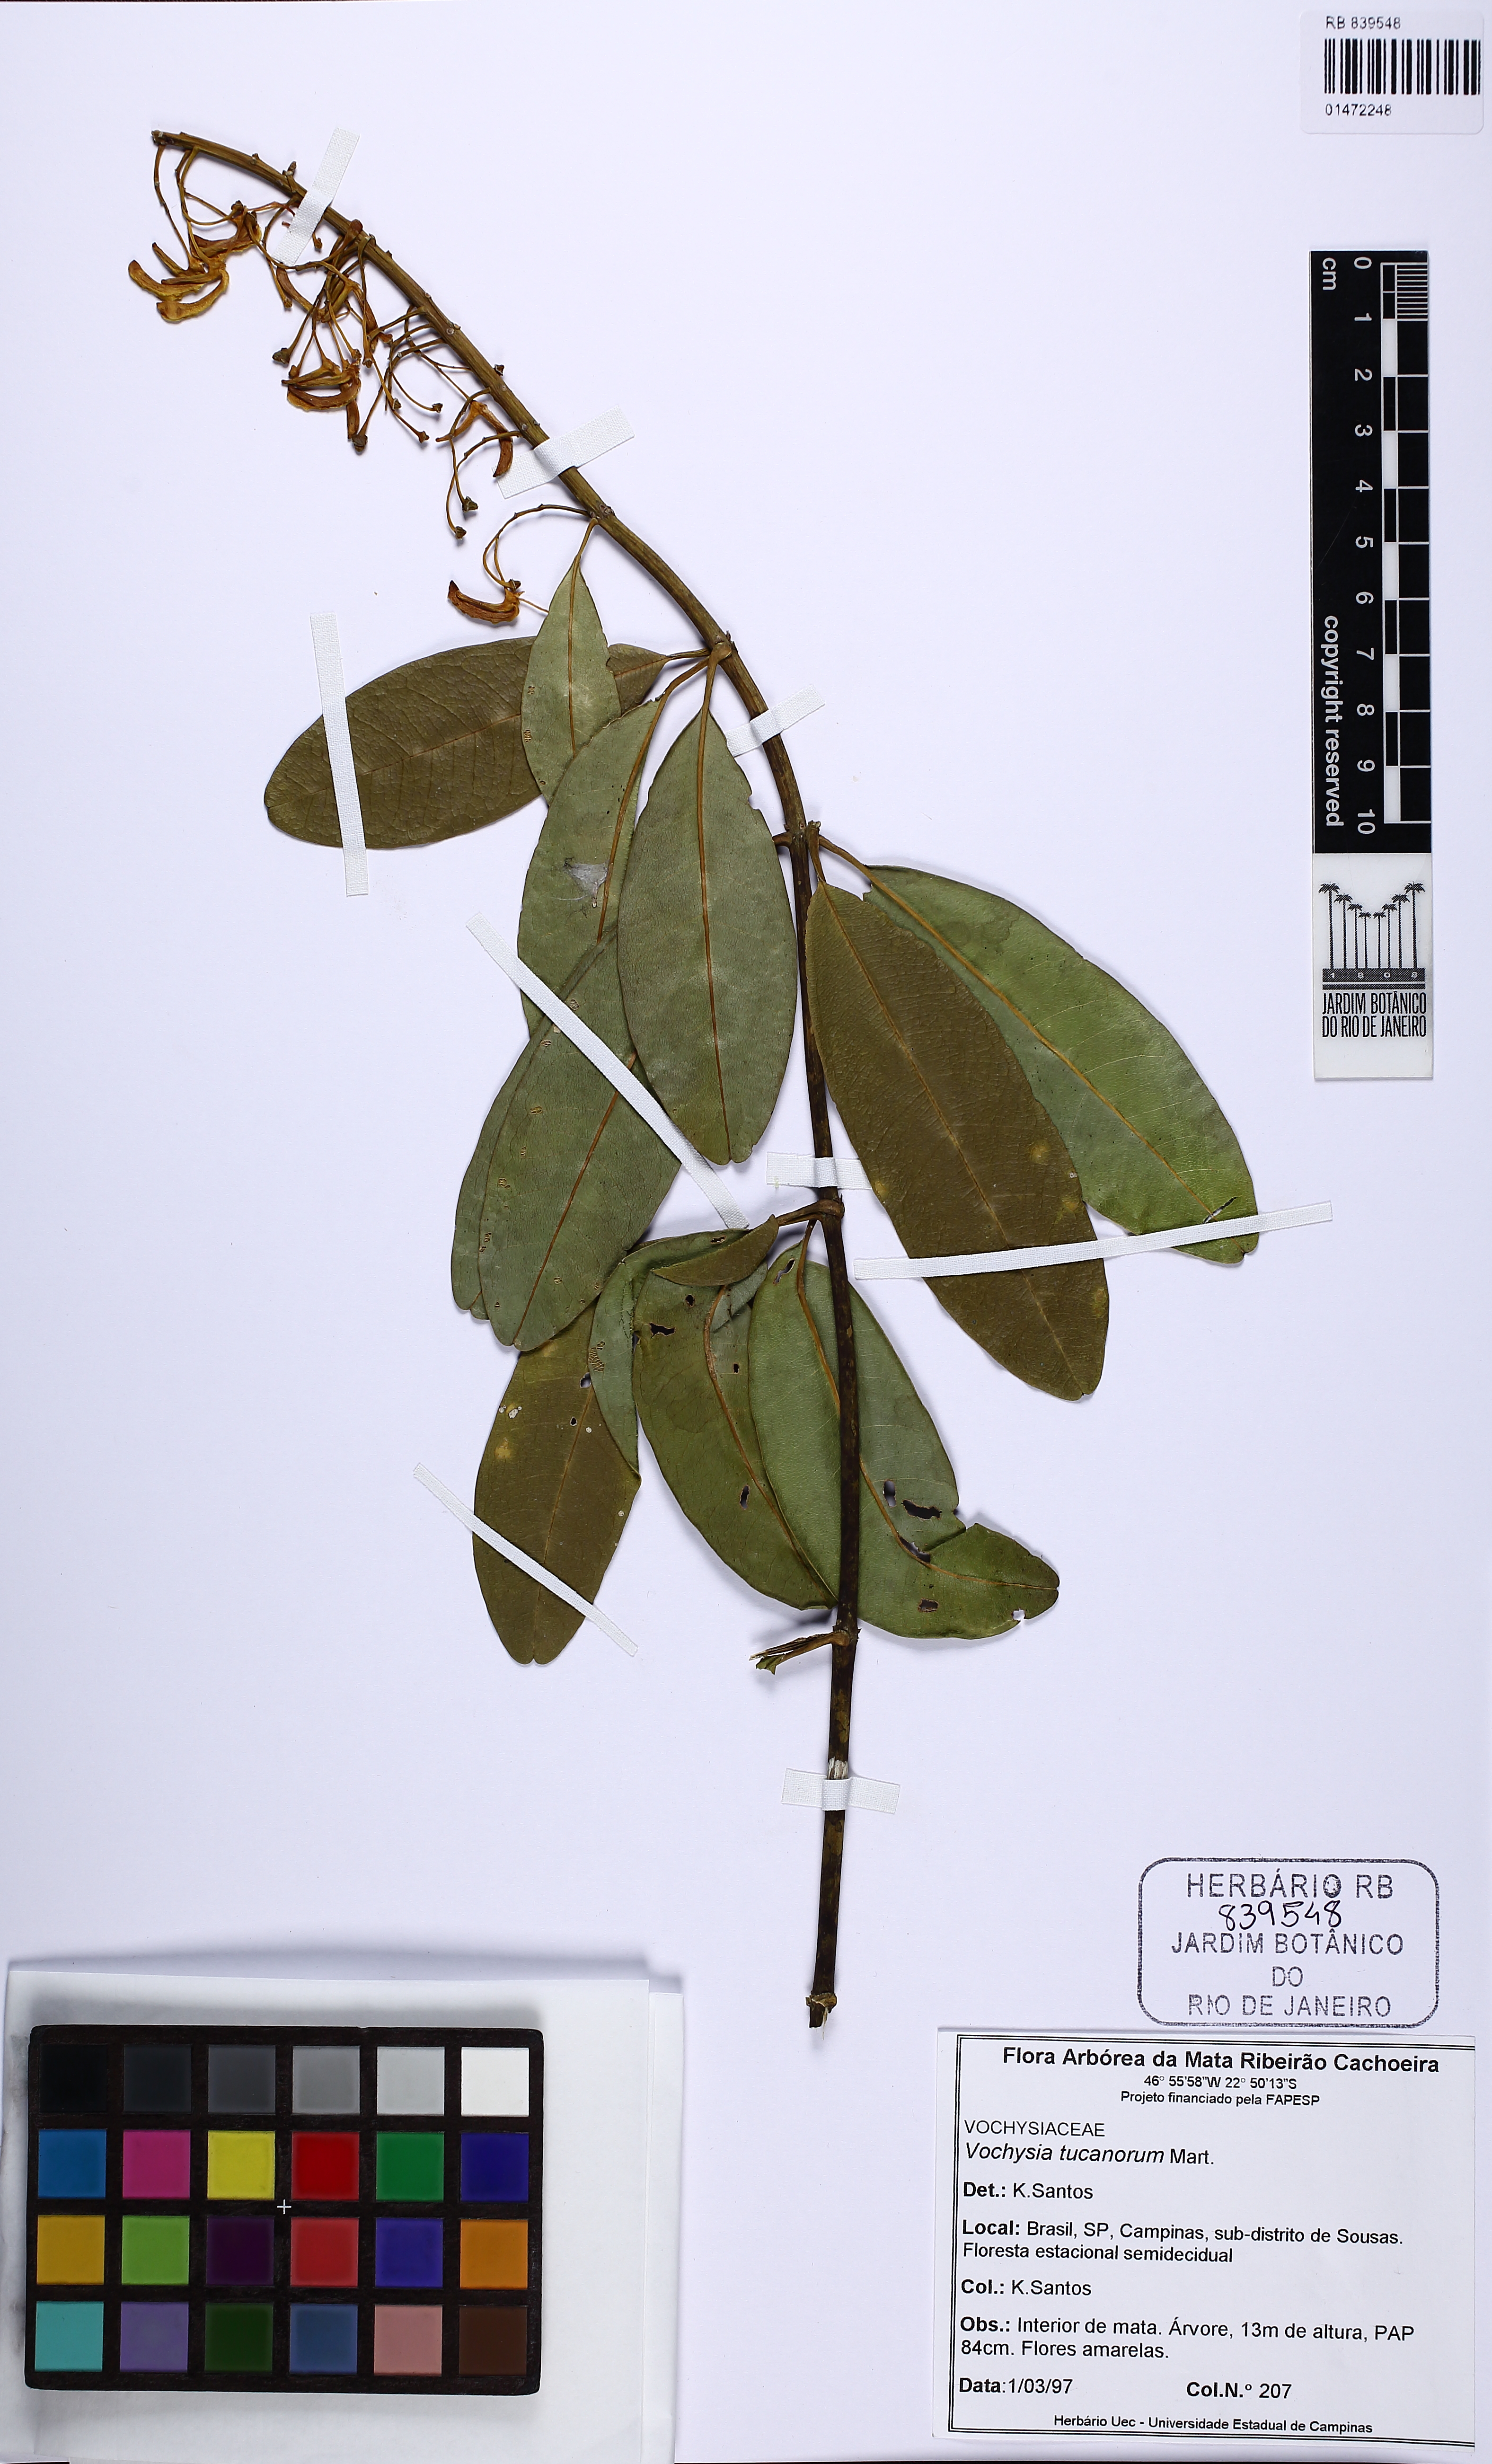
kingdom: Plantae
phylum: Tracheophyta
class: Magnoliopsida
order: Myrtales
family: Vochysiaceae
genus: Vochysia
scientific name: Vochysia tucanorum
